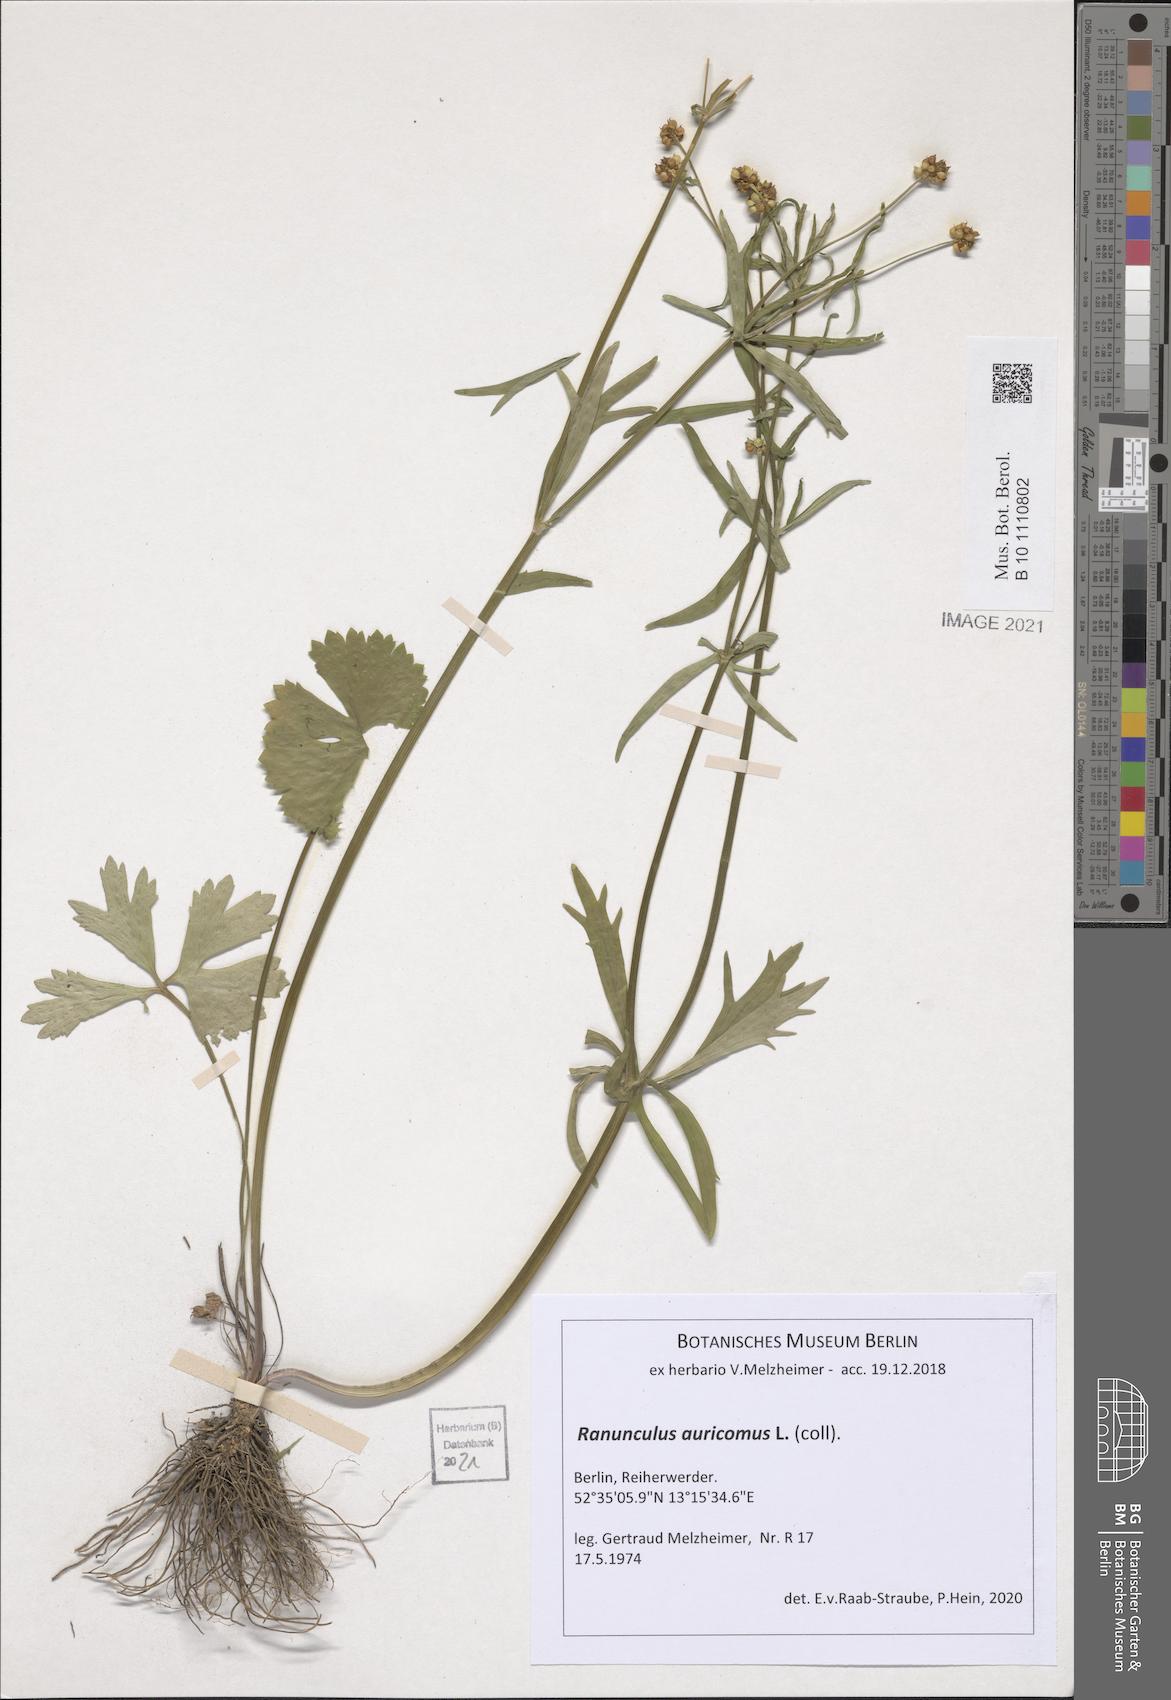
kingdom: Plantae
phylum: Tracheophyta
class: Magnoliopsida
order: Ranunculales
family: Ranunculaceae
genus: Ranunculus
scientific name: Ranunculus auricomus
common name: Goldilocks buttercup
